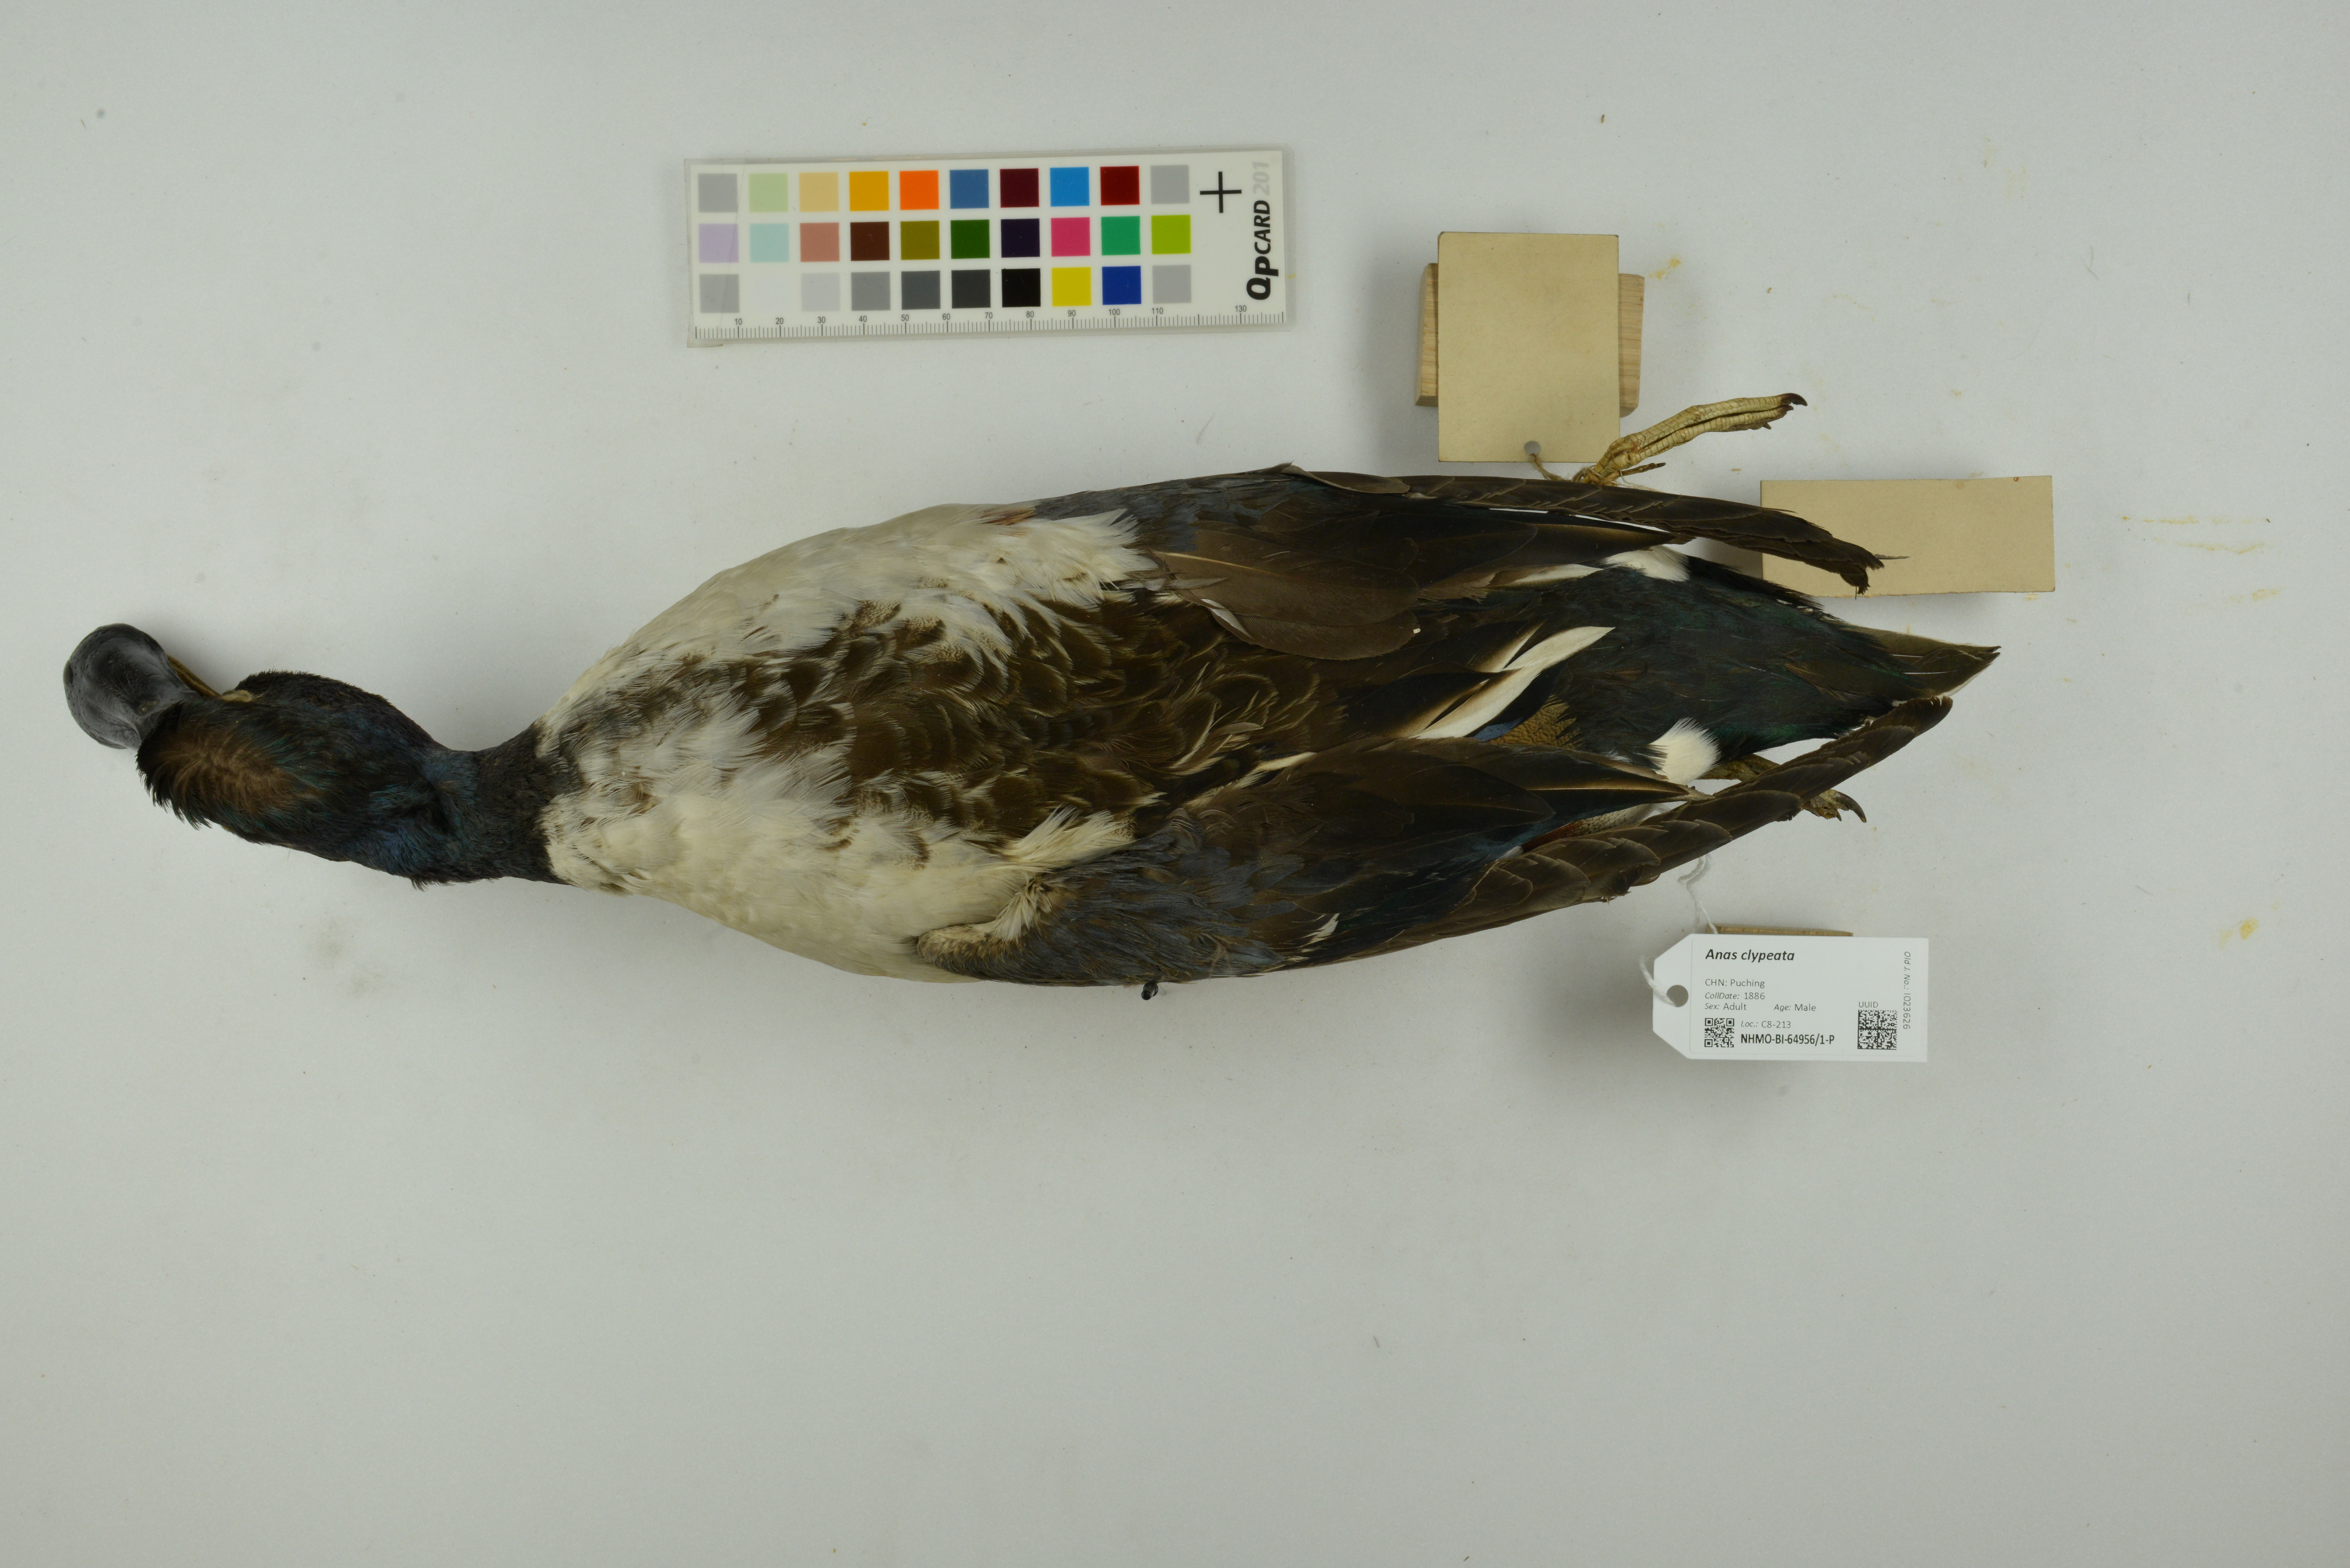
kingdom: Animalia
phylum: Chordata
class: Aves
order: Anseriformes
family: Anatidae
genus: Spatula
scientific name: Spatula clypeata
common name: Northern shoveler
